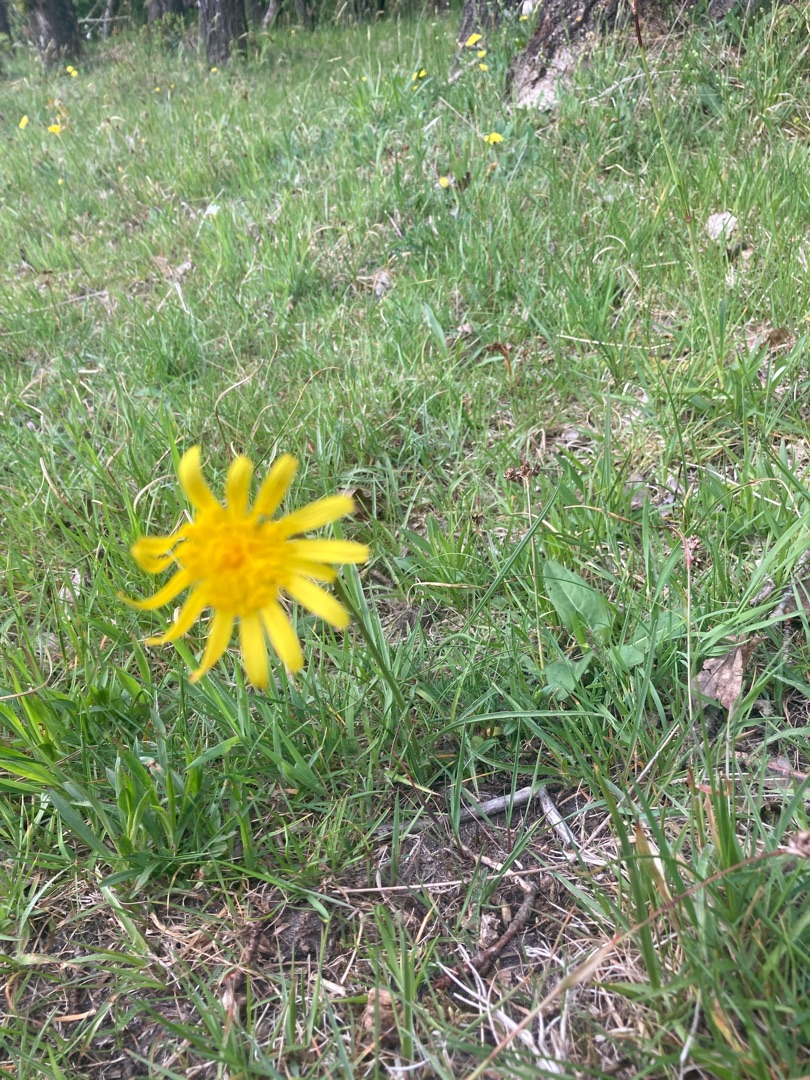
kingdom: Plantae
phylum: Tracheophyta
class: Magnoliopsida
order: Asterales
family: Asteraceae
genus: Scorzonera
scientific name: Scorzonera humilis
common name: Lav skorsoner
